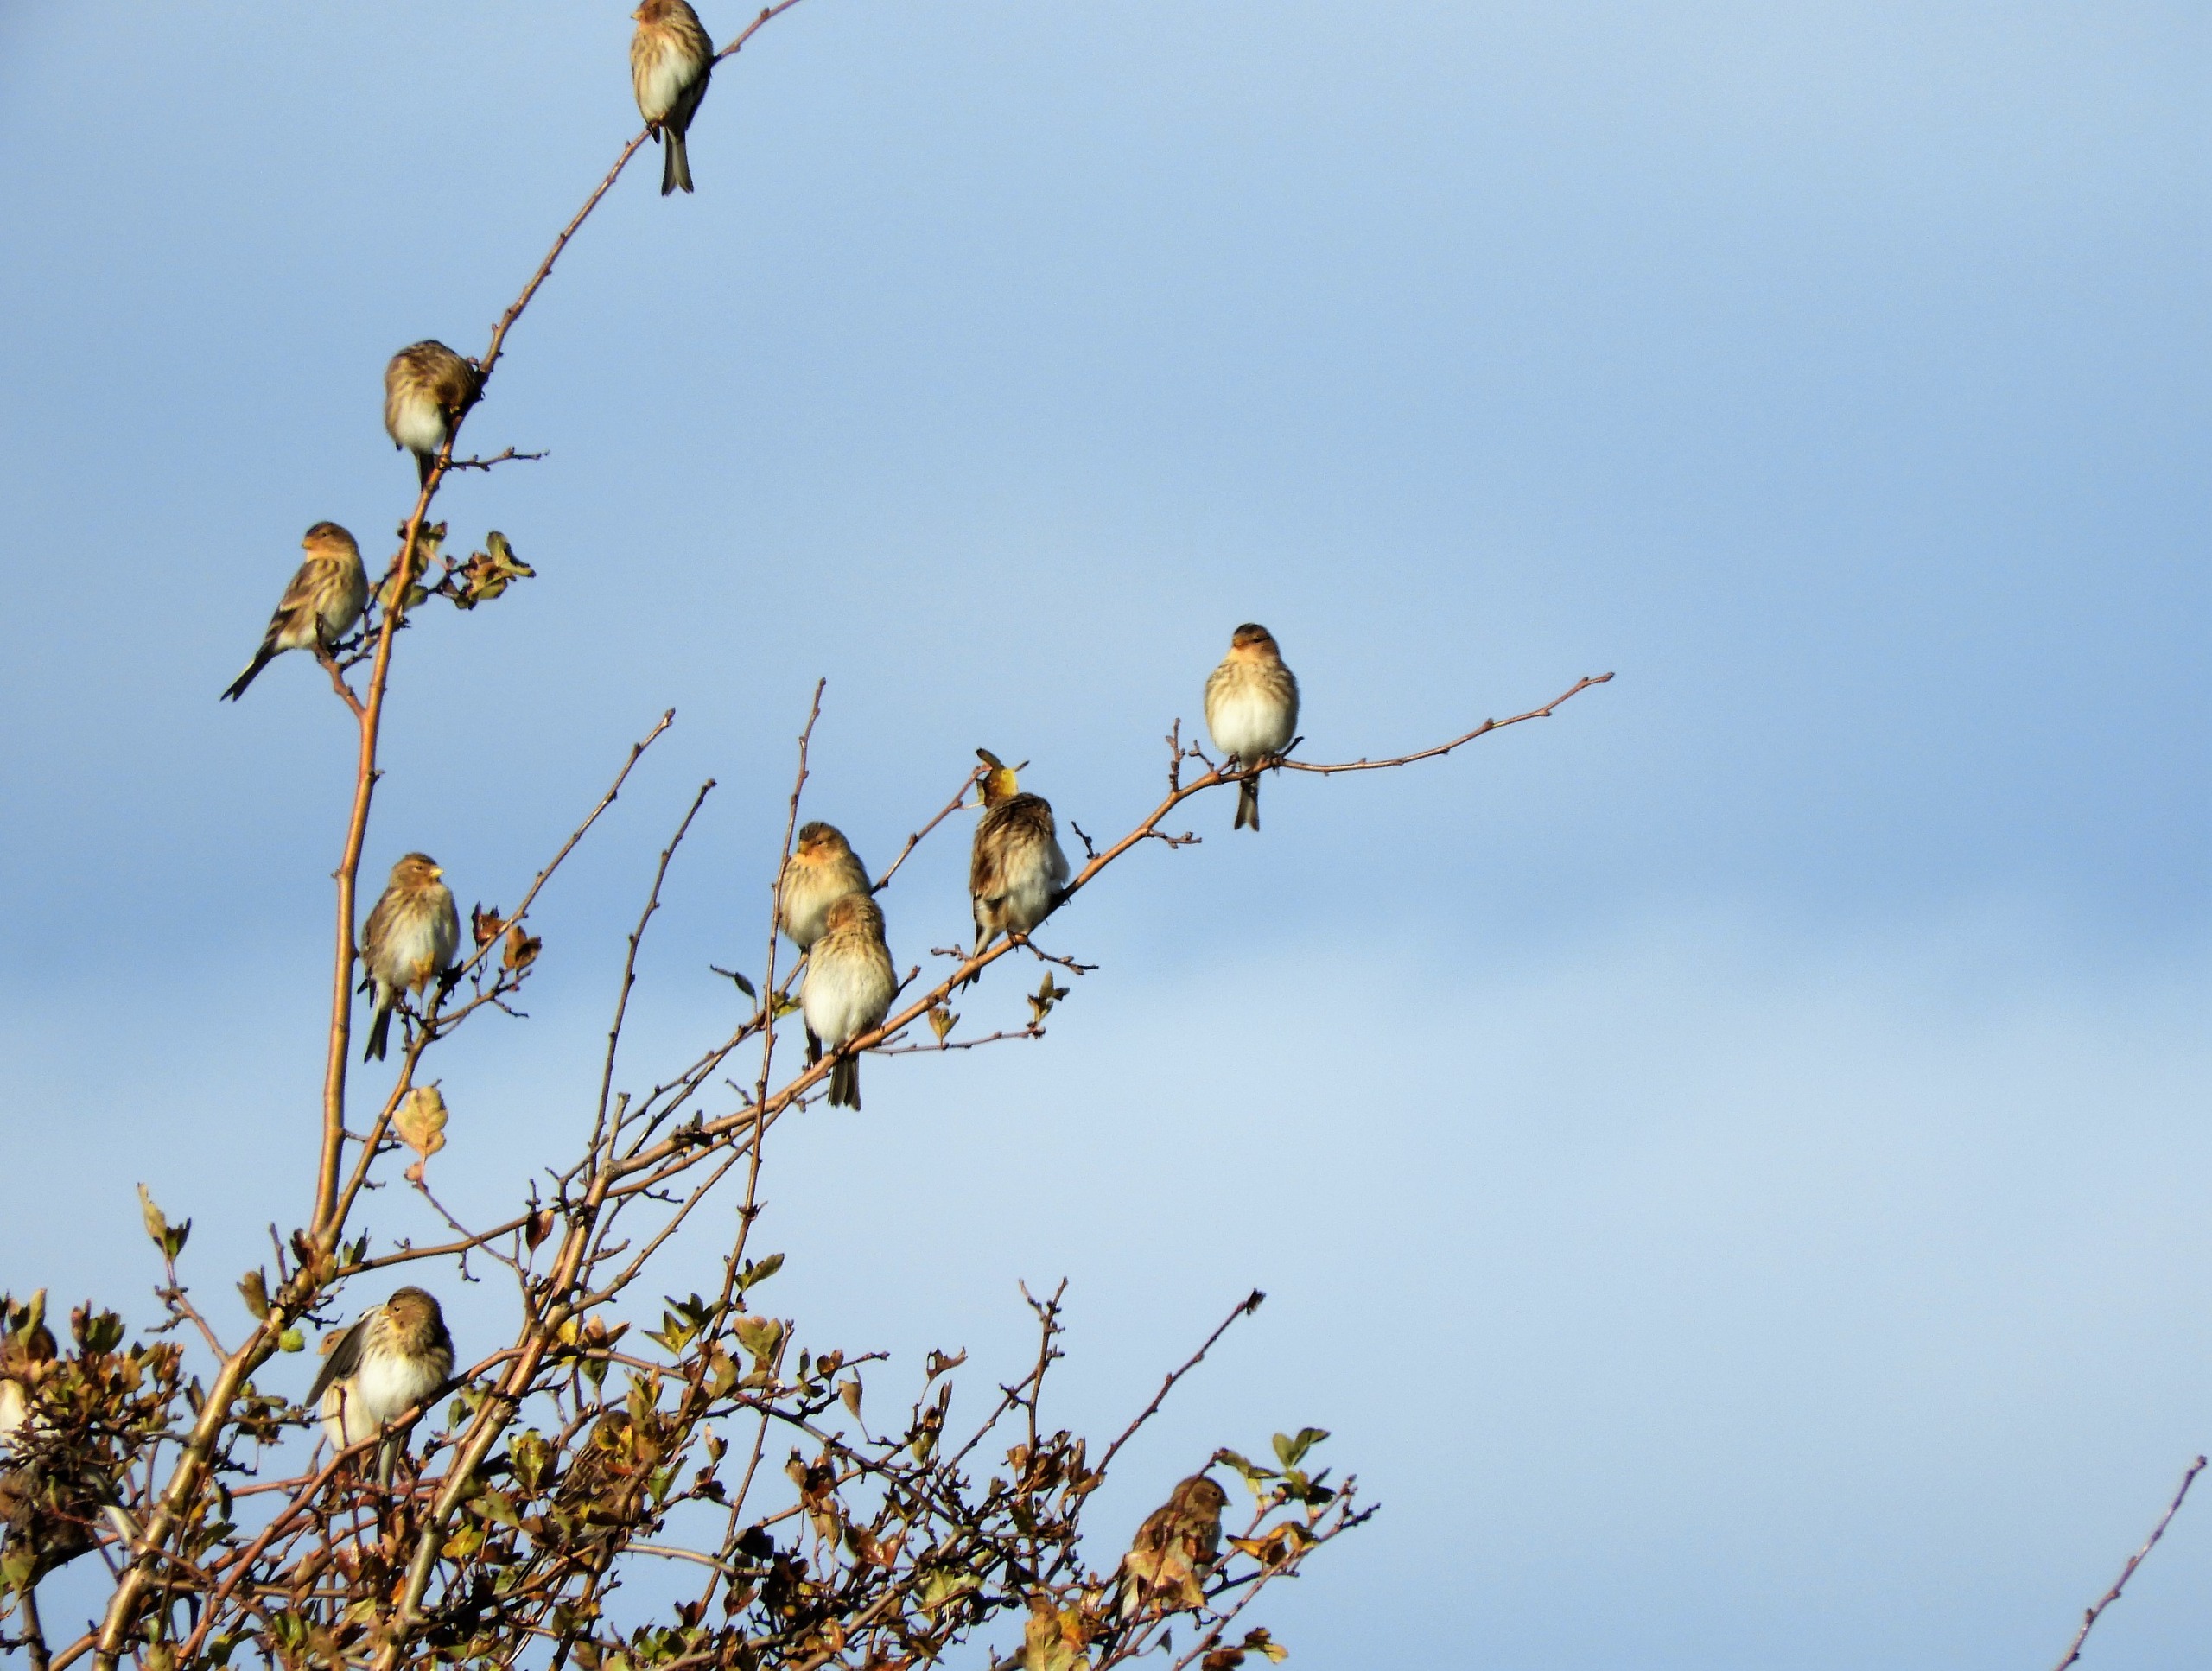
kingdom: Animalia
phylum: Chordata
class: Aves
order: Passeriformes
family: Fringillidae
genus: Linaria
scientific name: Linaria flavirostris
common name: Bjergirisk
